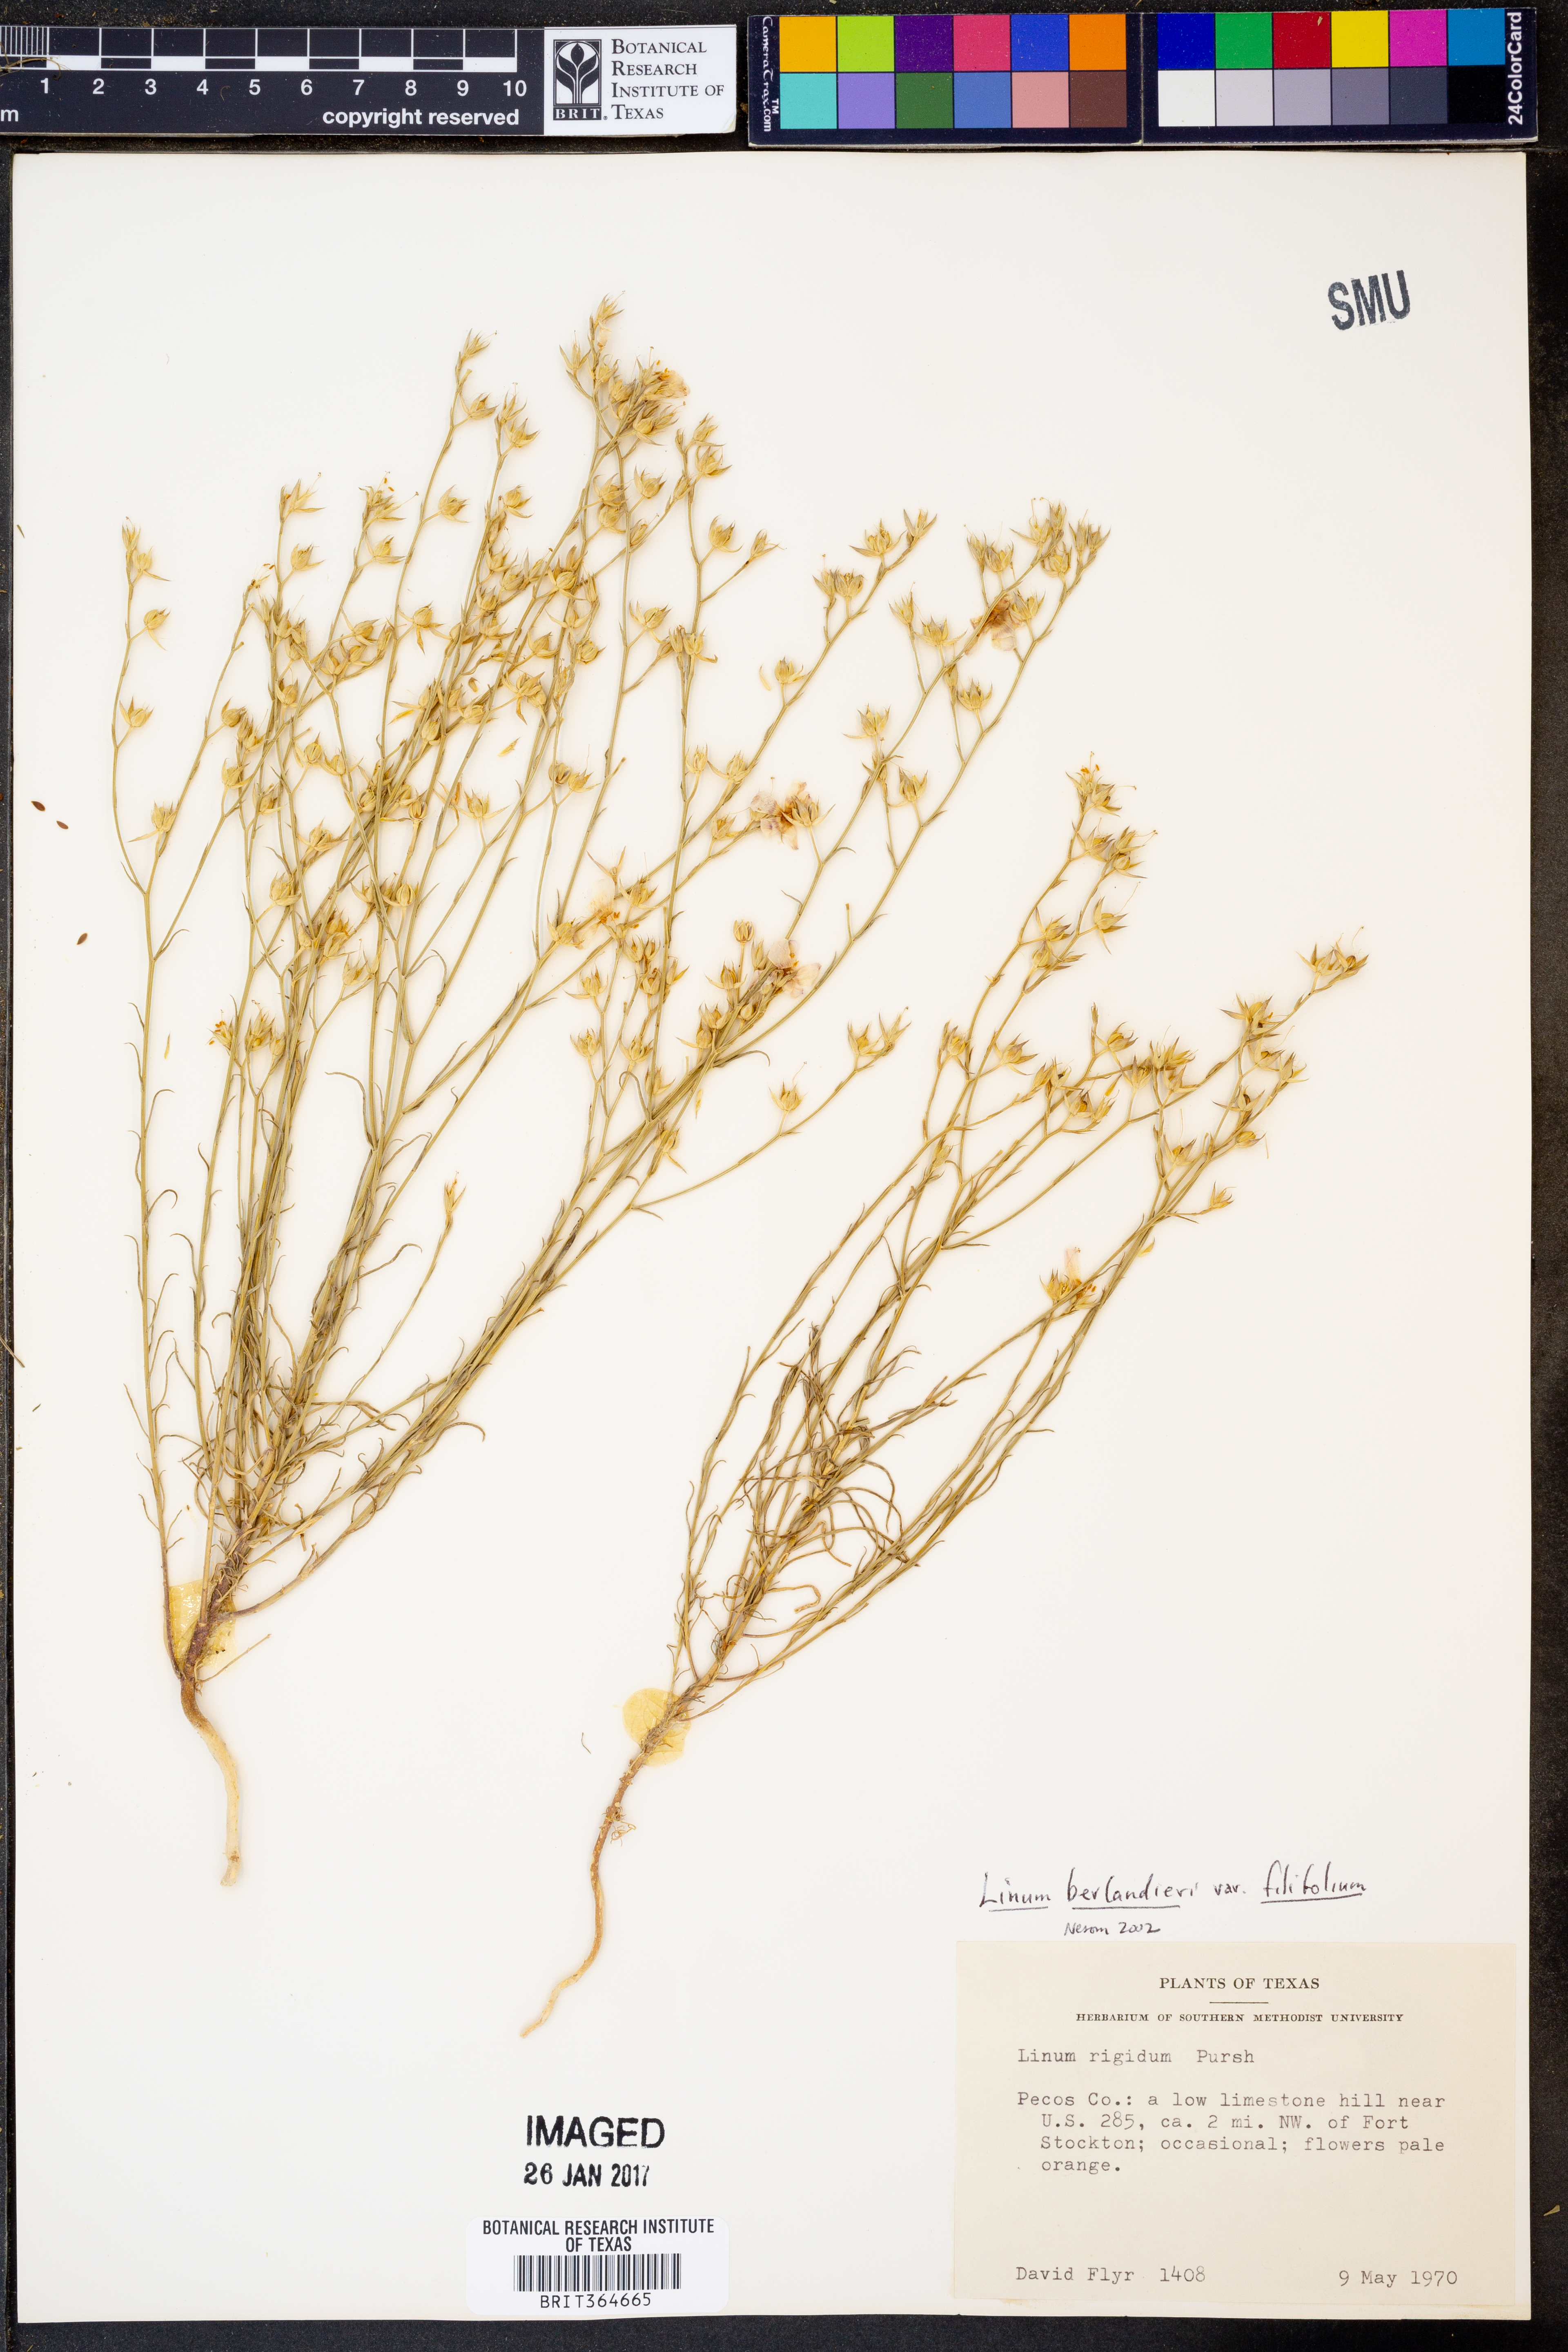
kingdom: Plantae
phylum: Tracheophyta
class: Magnoliopsida
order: Malpighiales
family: Linaceae
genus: Linum
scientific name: Linum berlandieri
